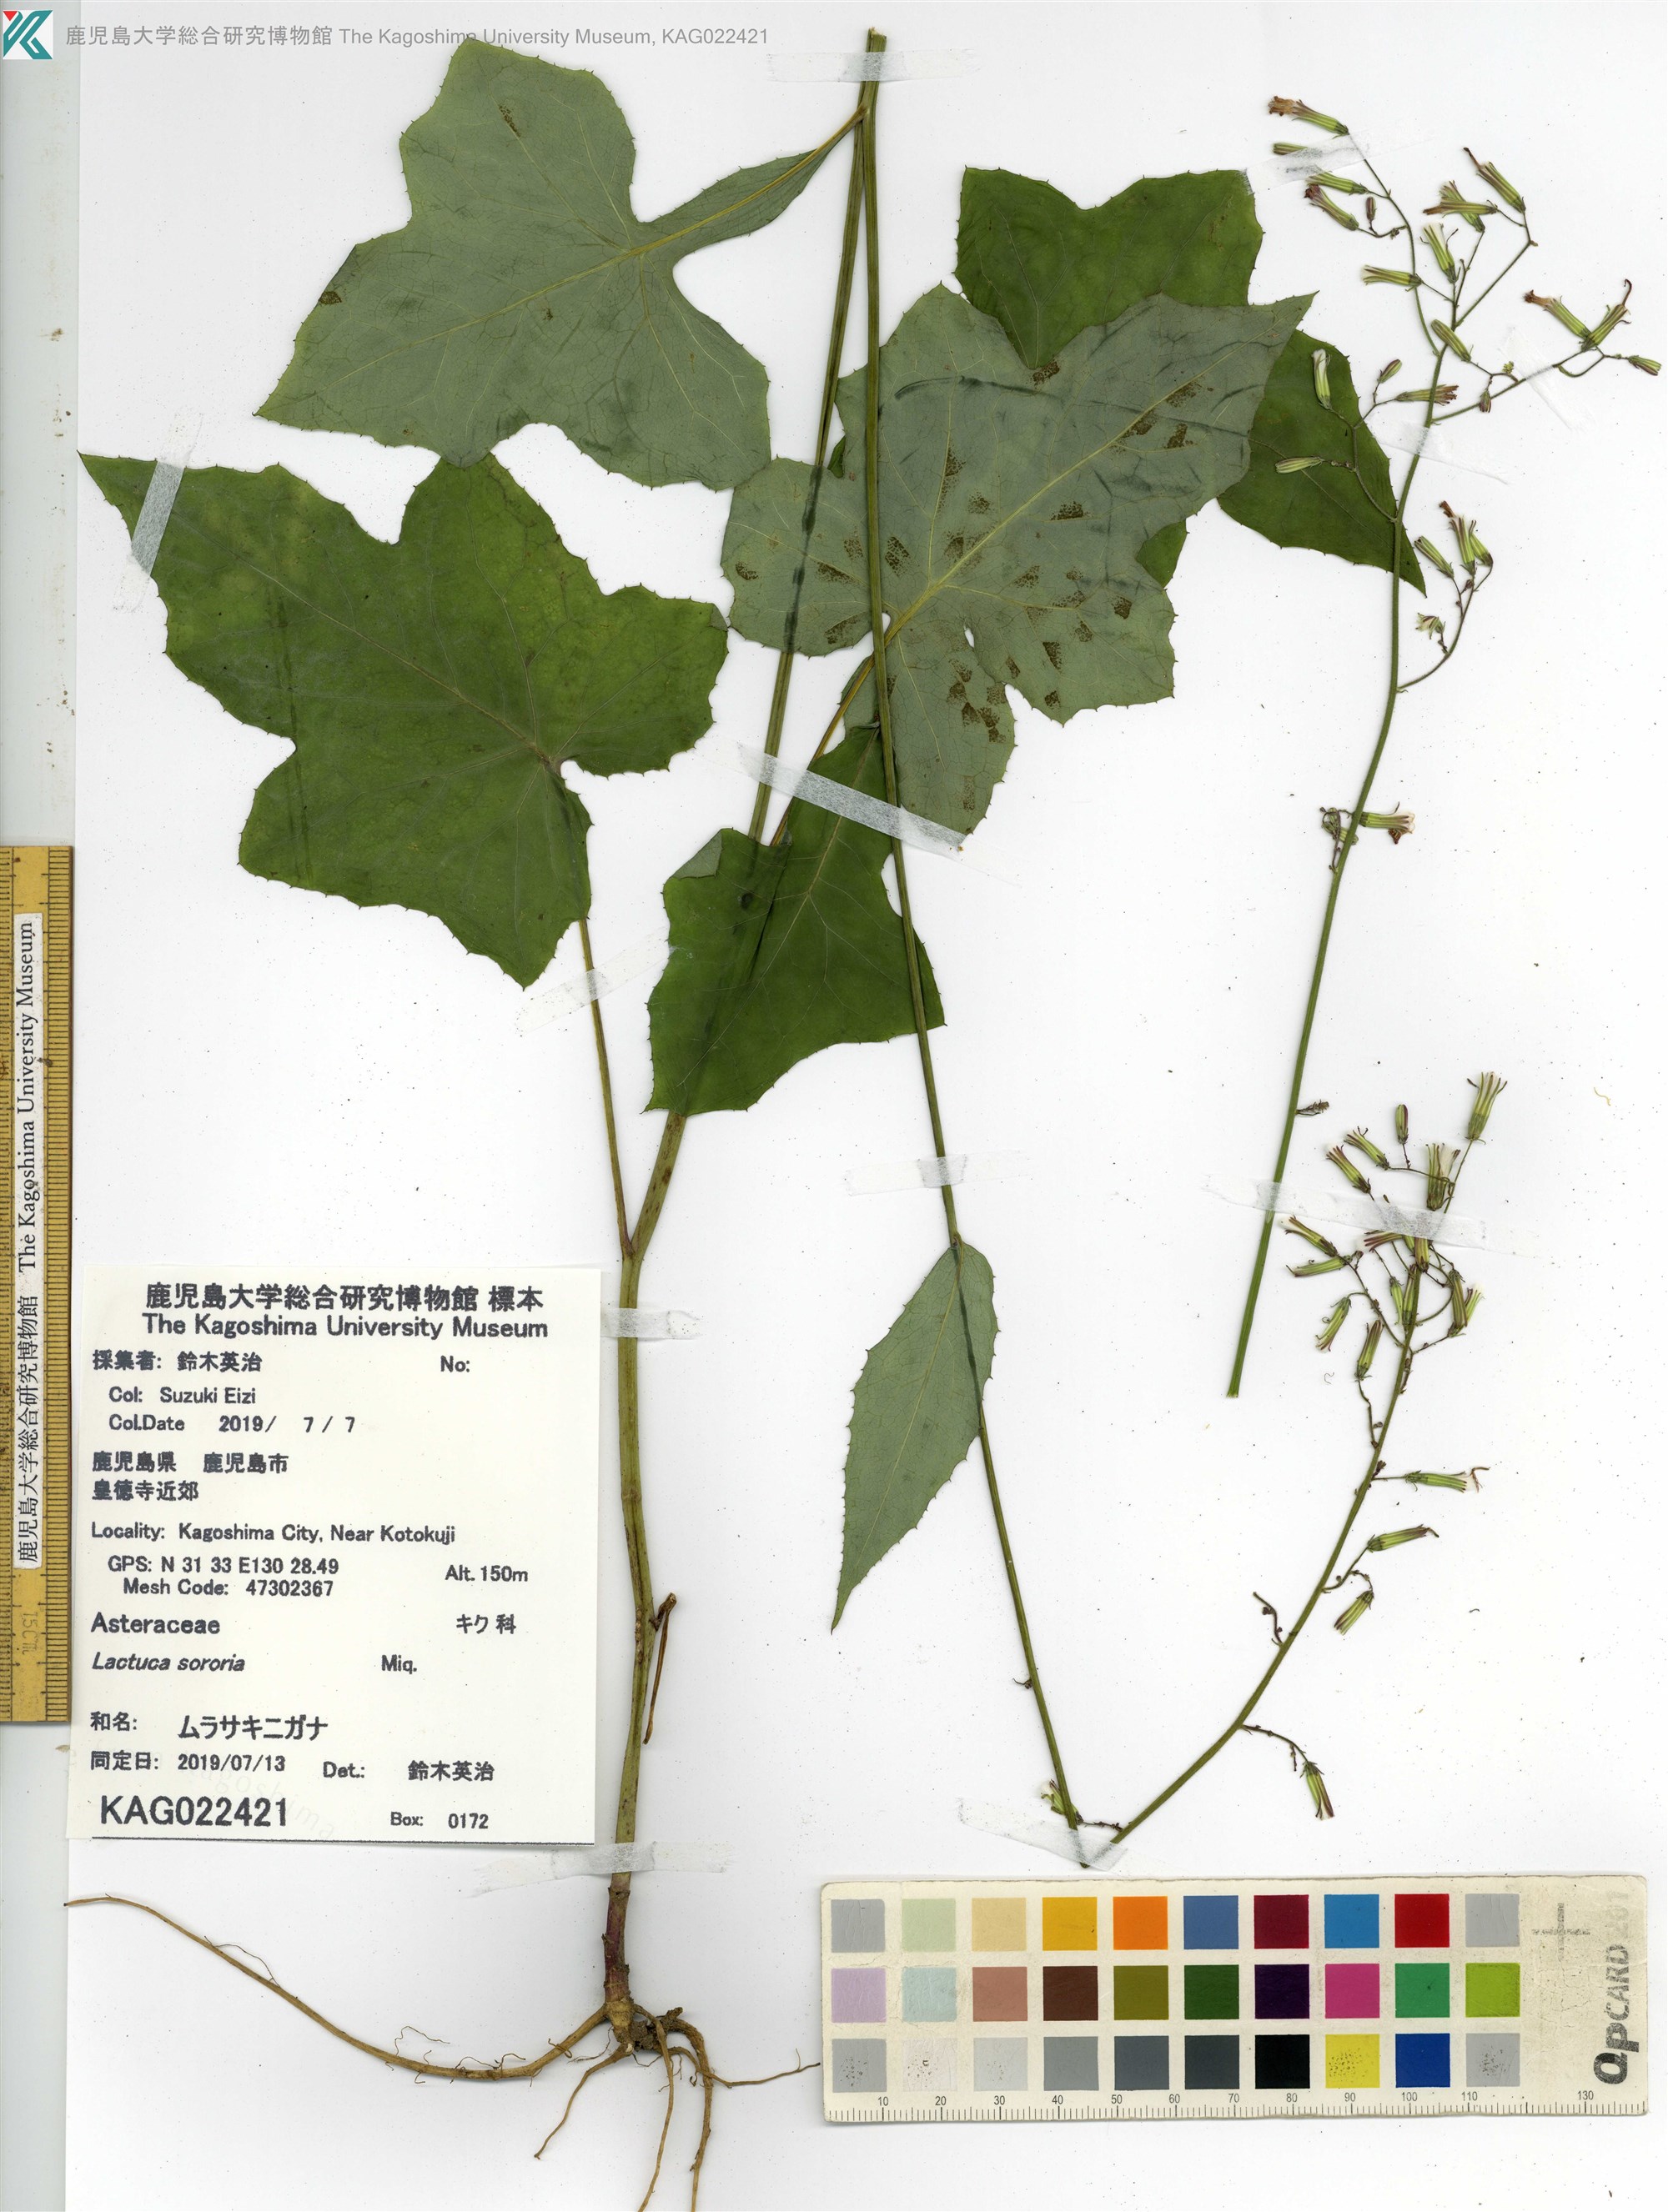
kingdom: Plantae
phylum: Tracheophyta
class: Magnoliopsida
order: Asterales
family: Asteraceae
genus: Paraprenanthes
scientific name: Paraprenanthes sororia
